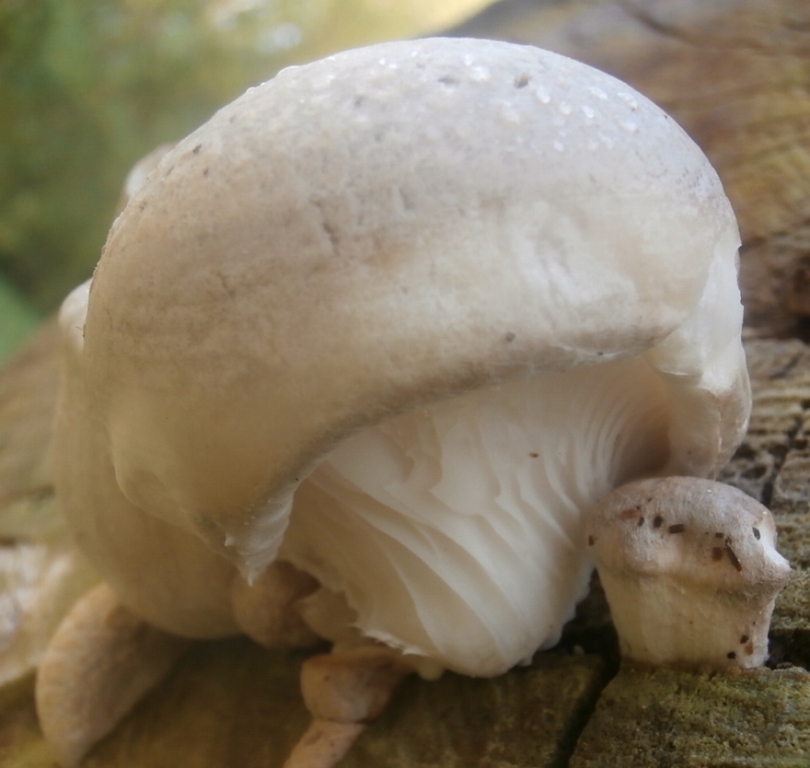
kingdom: Fungi
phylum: Basidiomycota
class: Agaricomycetes
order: Agaricales
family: Pleurotaceae
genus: Pleurotus
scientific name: Pleurotus dryinus
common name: korkagtig østershat
